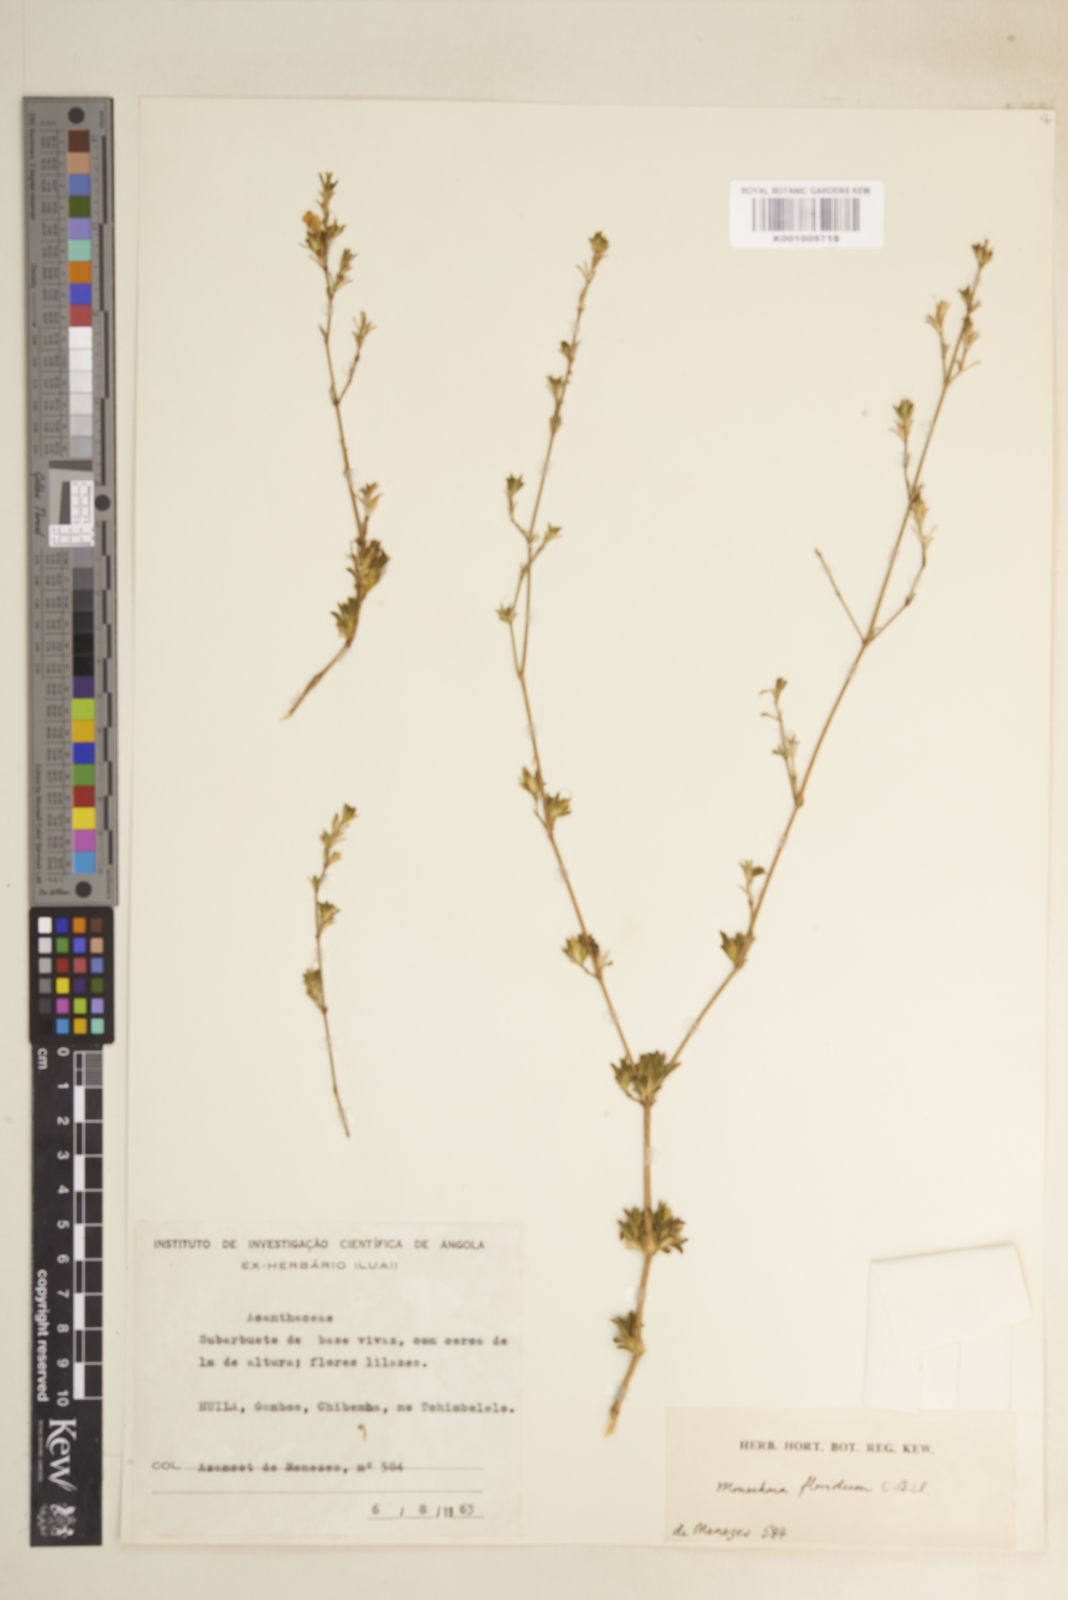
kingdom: Plantae
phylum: Tracheophyta
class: Magnoliopsida
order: Lamiales
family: Acanthaceae
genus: Pogonospermum
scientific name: Pogonospermum
